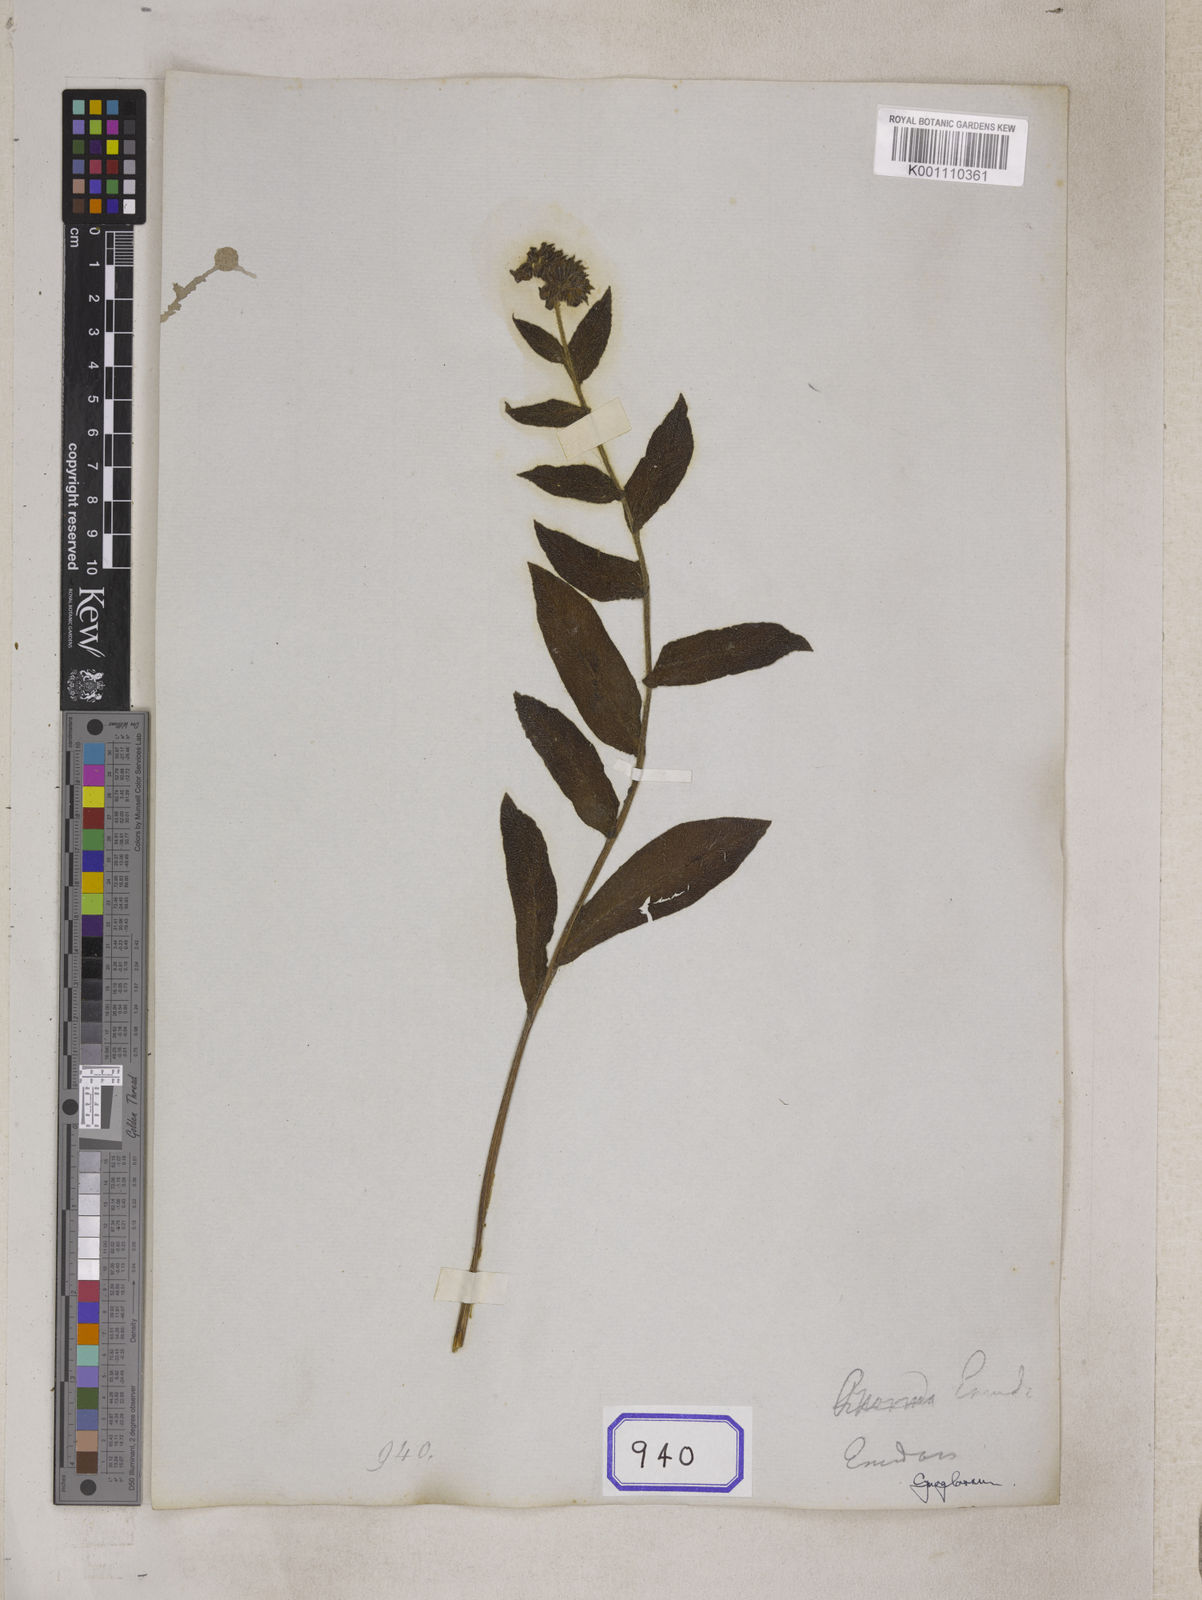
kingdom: Plantae
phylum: Tracheophyta
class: Magnoliopsida
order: Boraginales
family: Boraginaceae
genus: Maharanga
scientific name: Maharanga wallichiana
